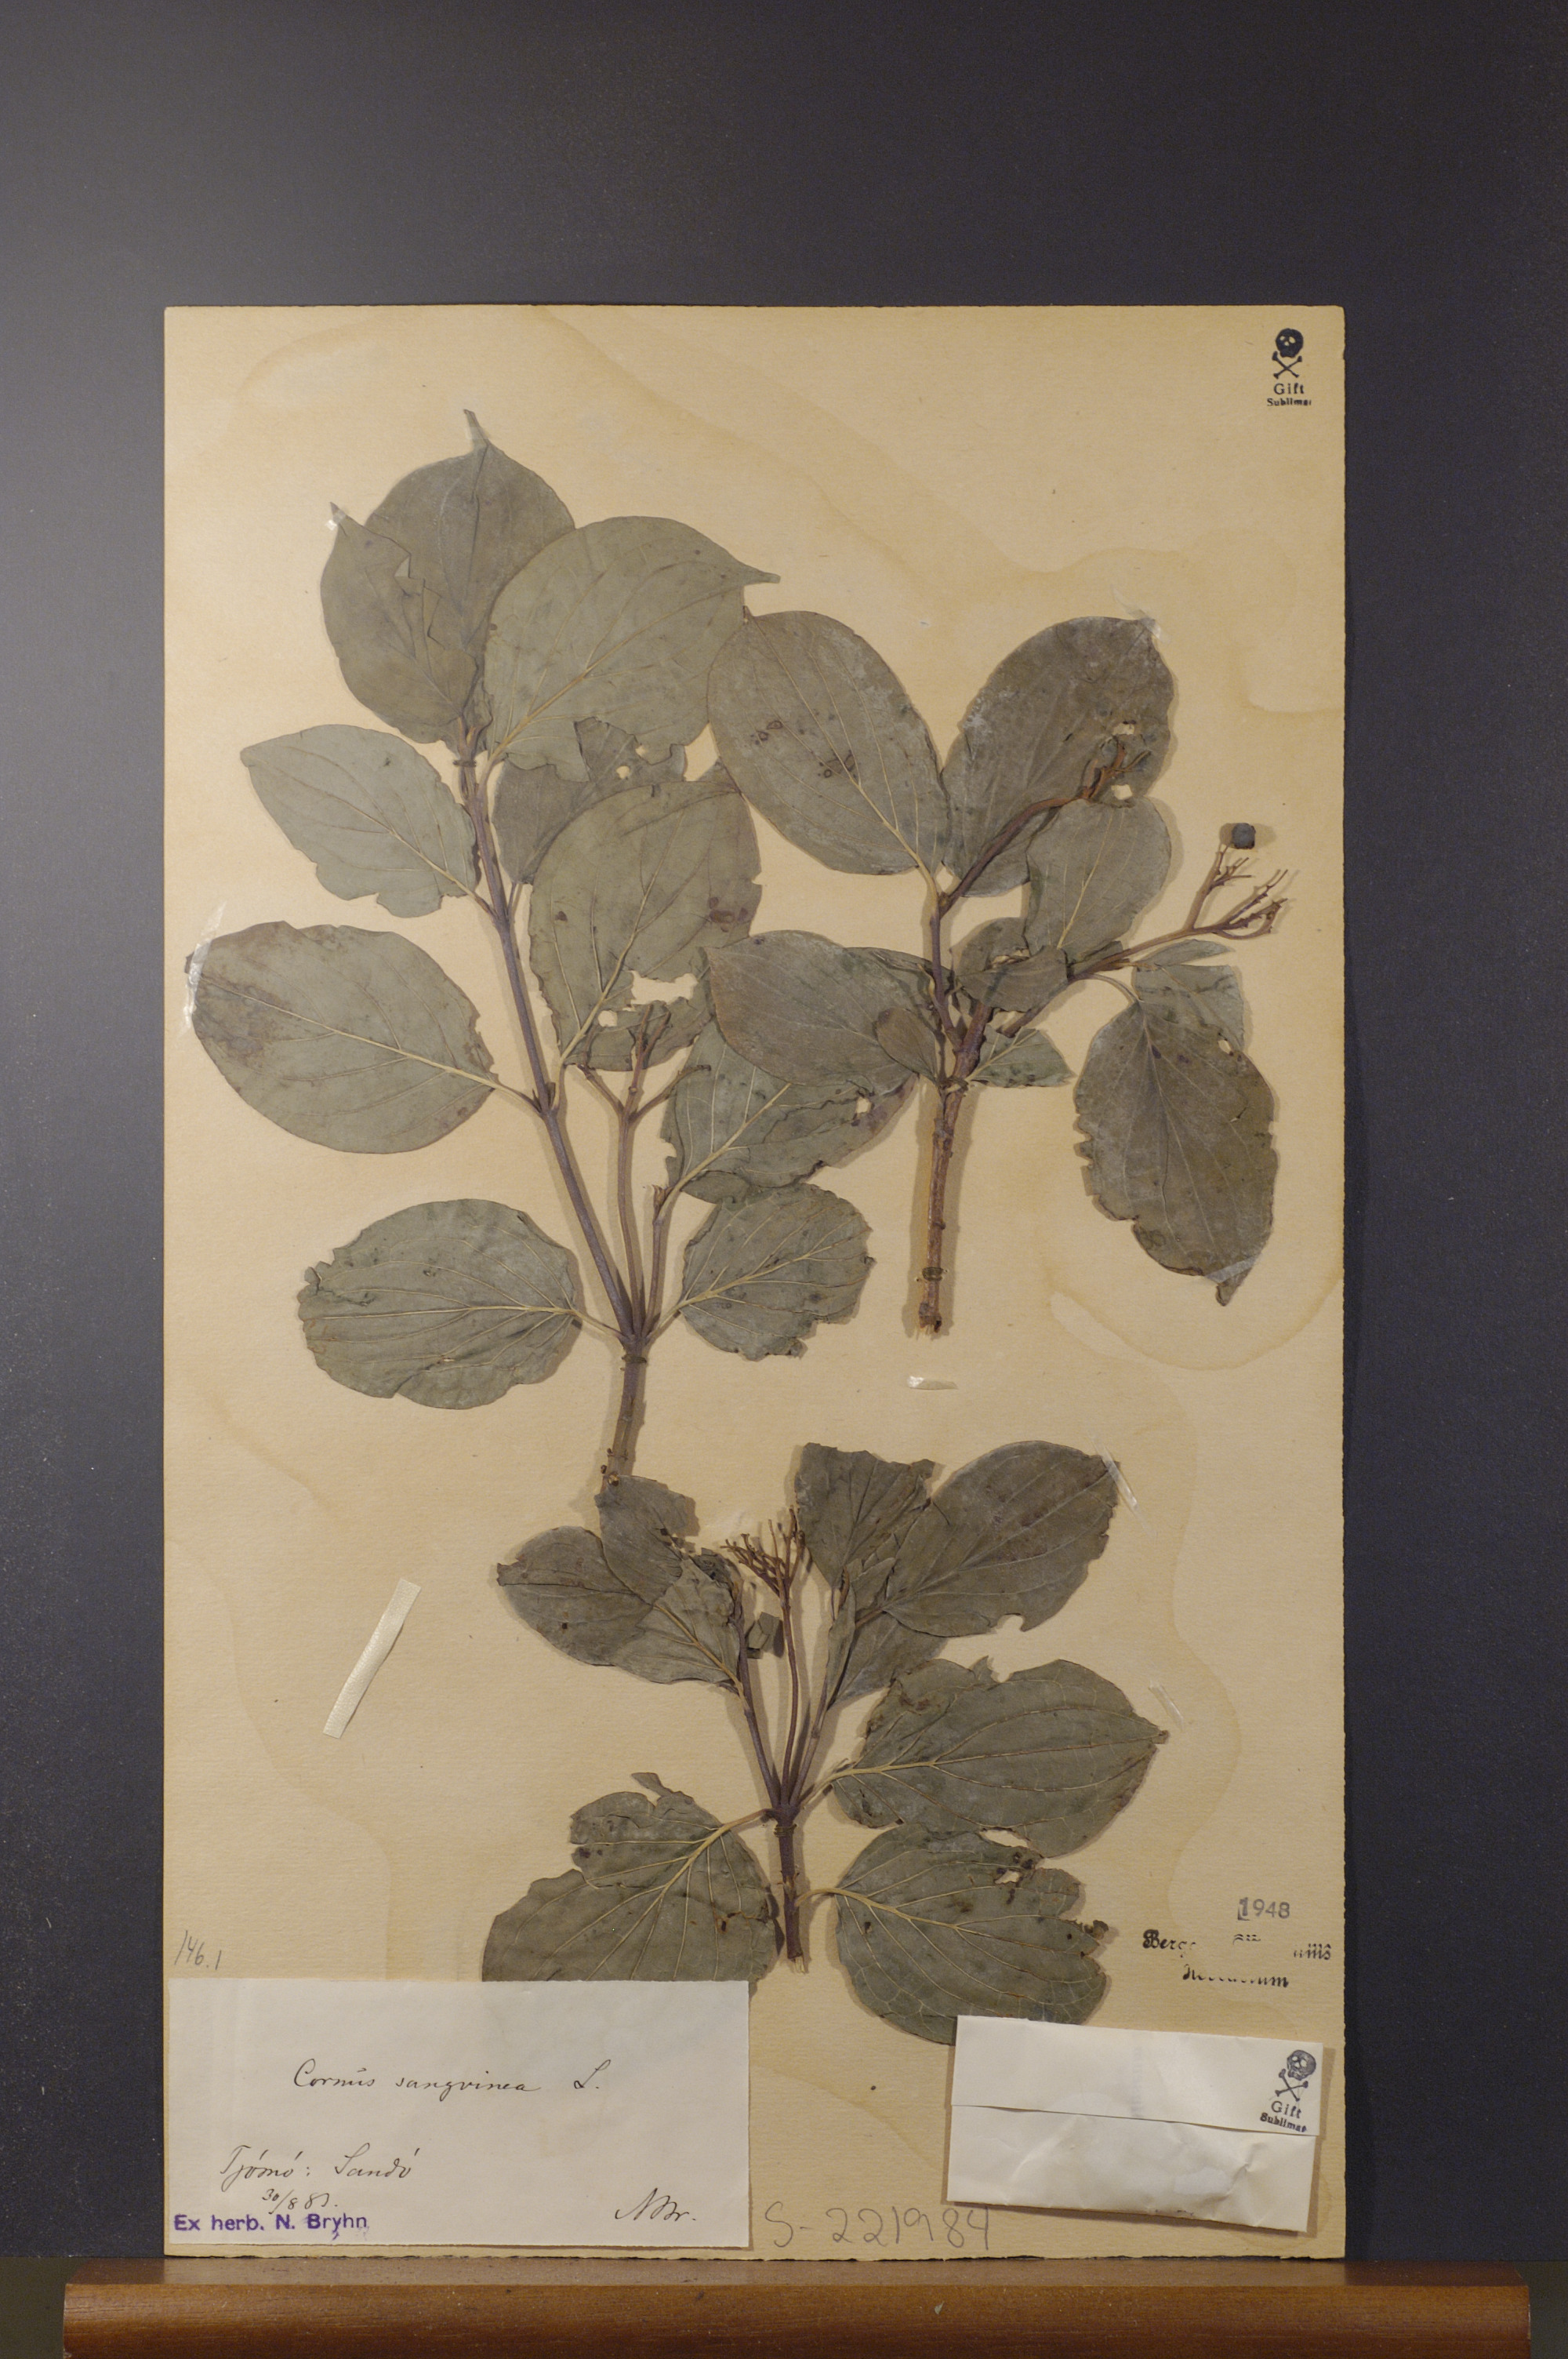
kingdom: Plantae
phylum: Tracheophyta
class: Magnoliopsida
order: Cornales
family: Cornaceae
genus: Cornus
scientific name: Cornus sanguinea
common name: Dogwood
